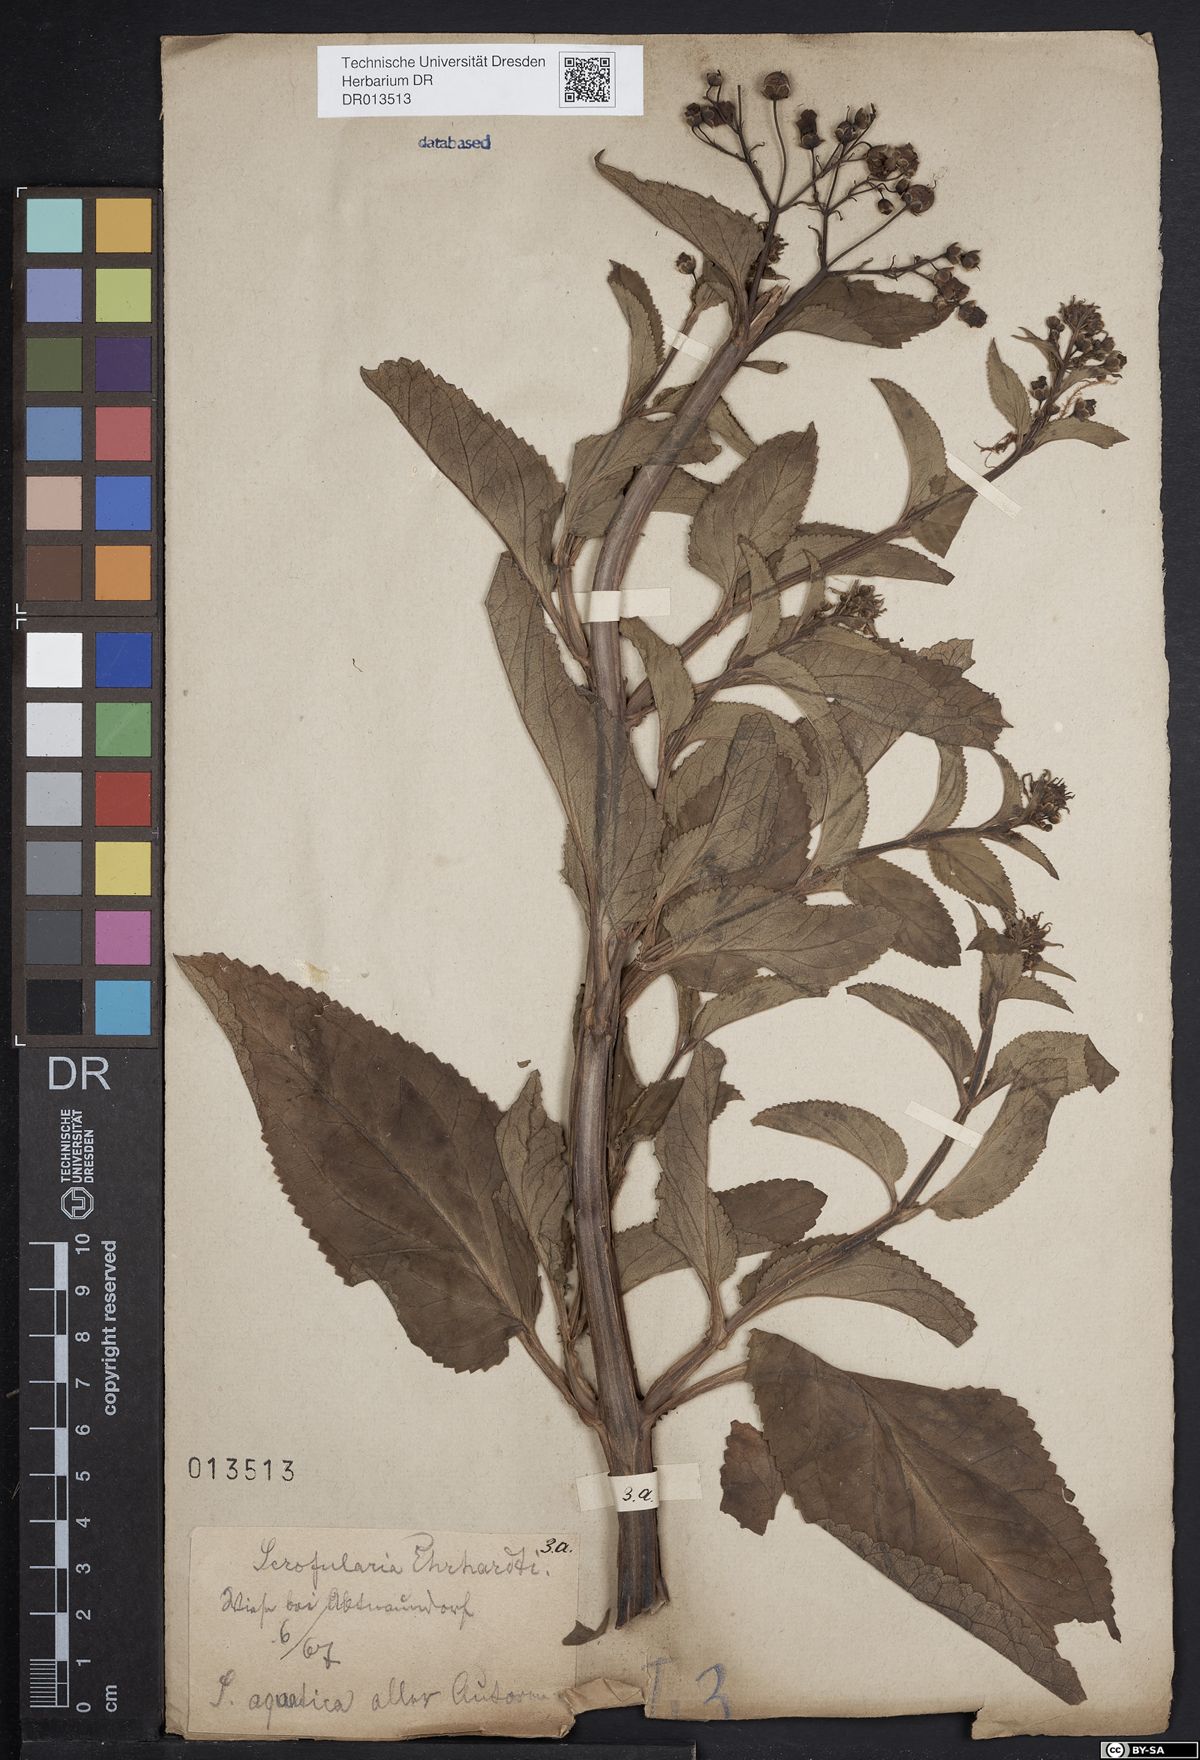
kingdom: Plantae
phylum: Tracheophyta
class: Magnoliopsida
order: Lamiales
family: Scrophulariaceae
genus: Scrophularia
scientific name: Scrophularia umbrosa
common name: Green figwort
